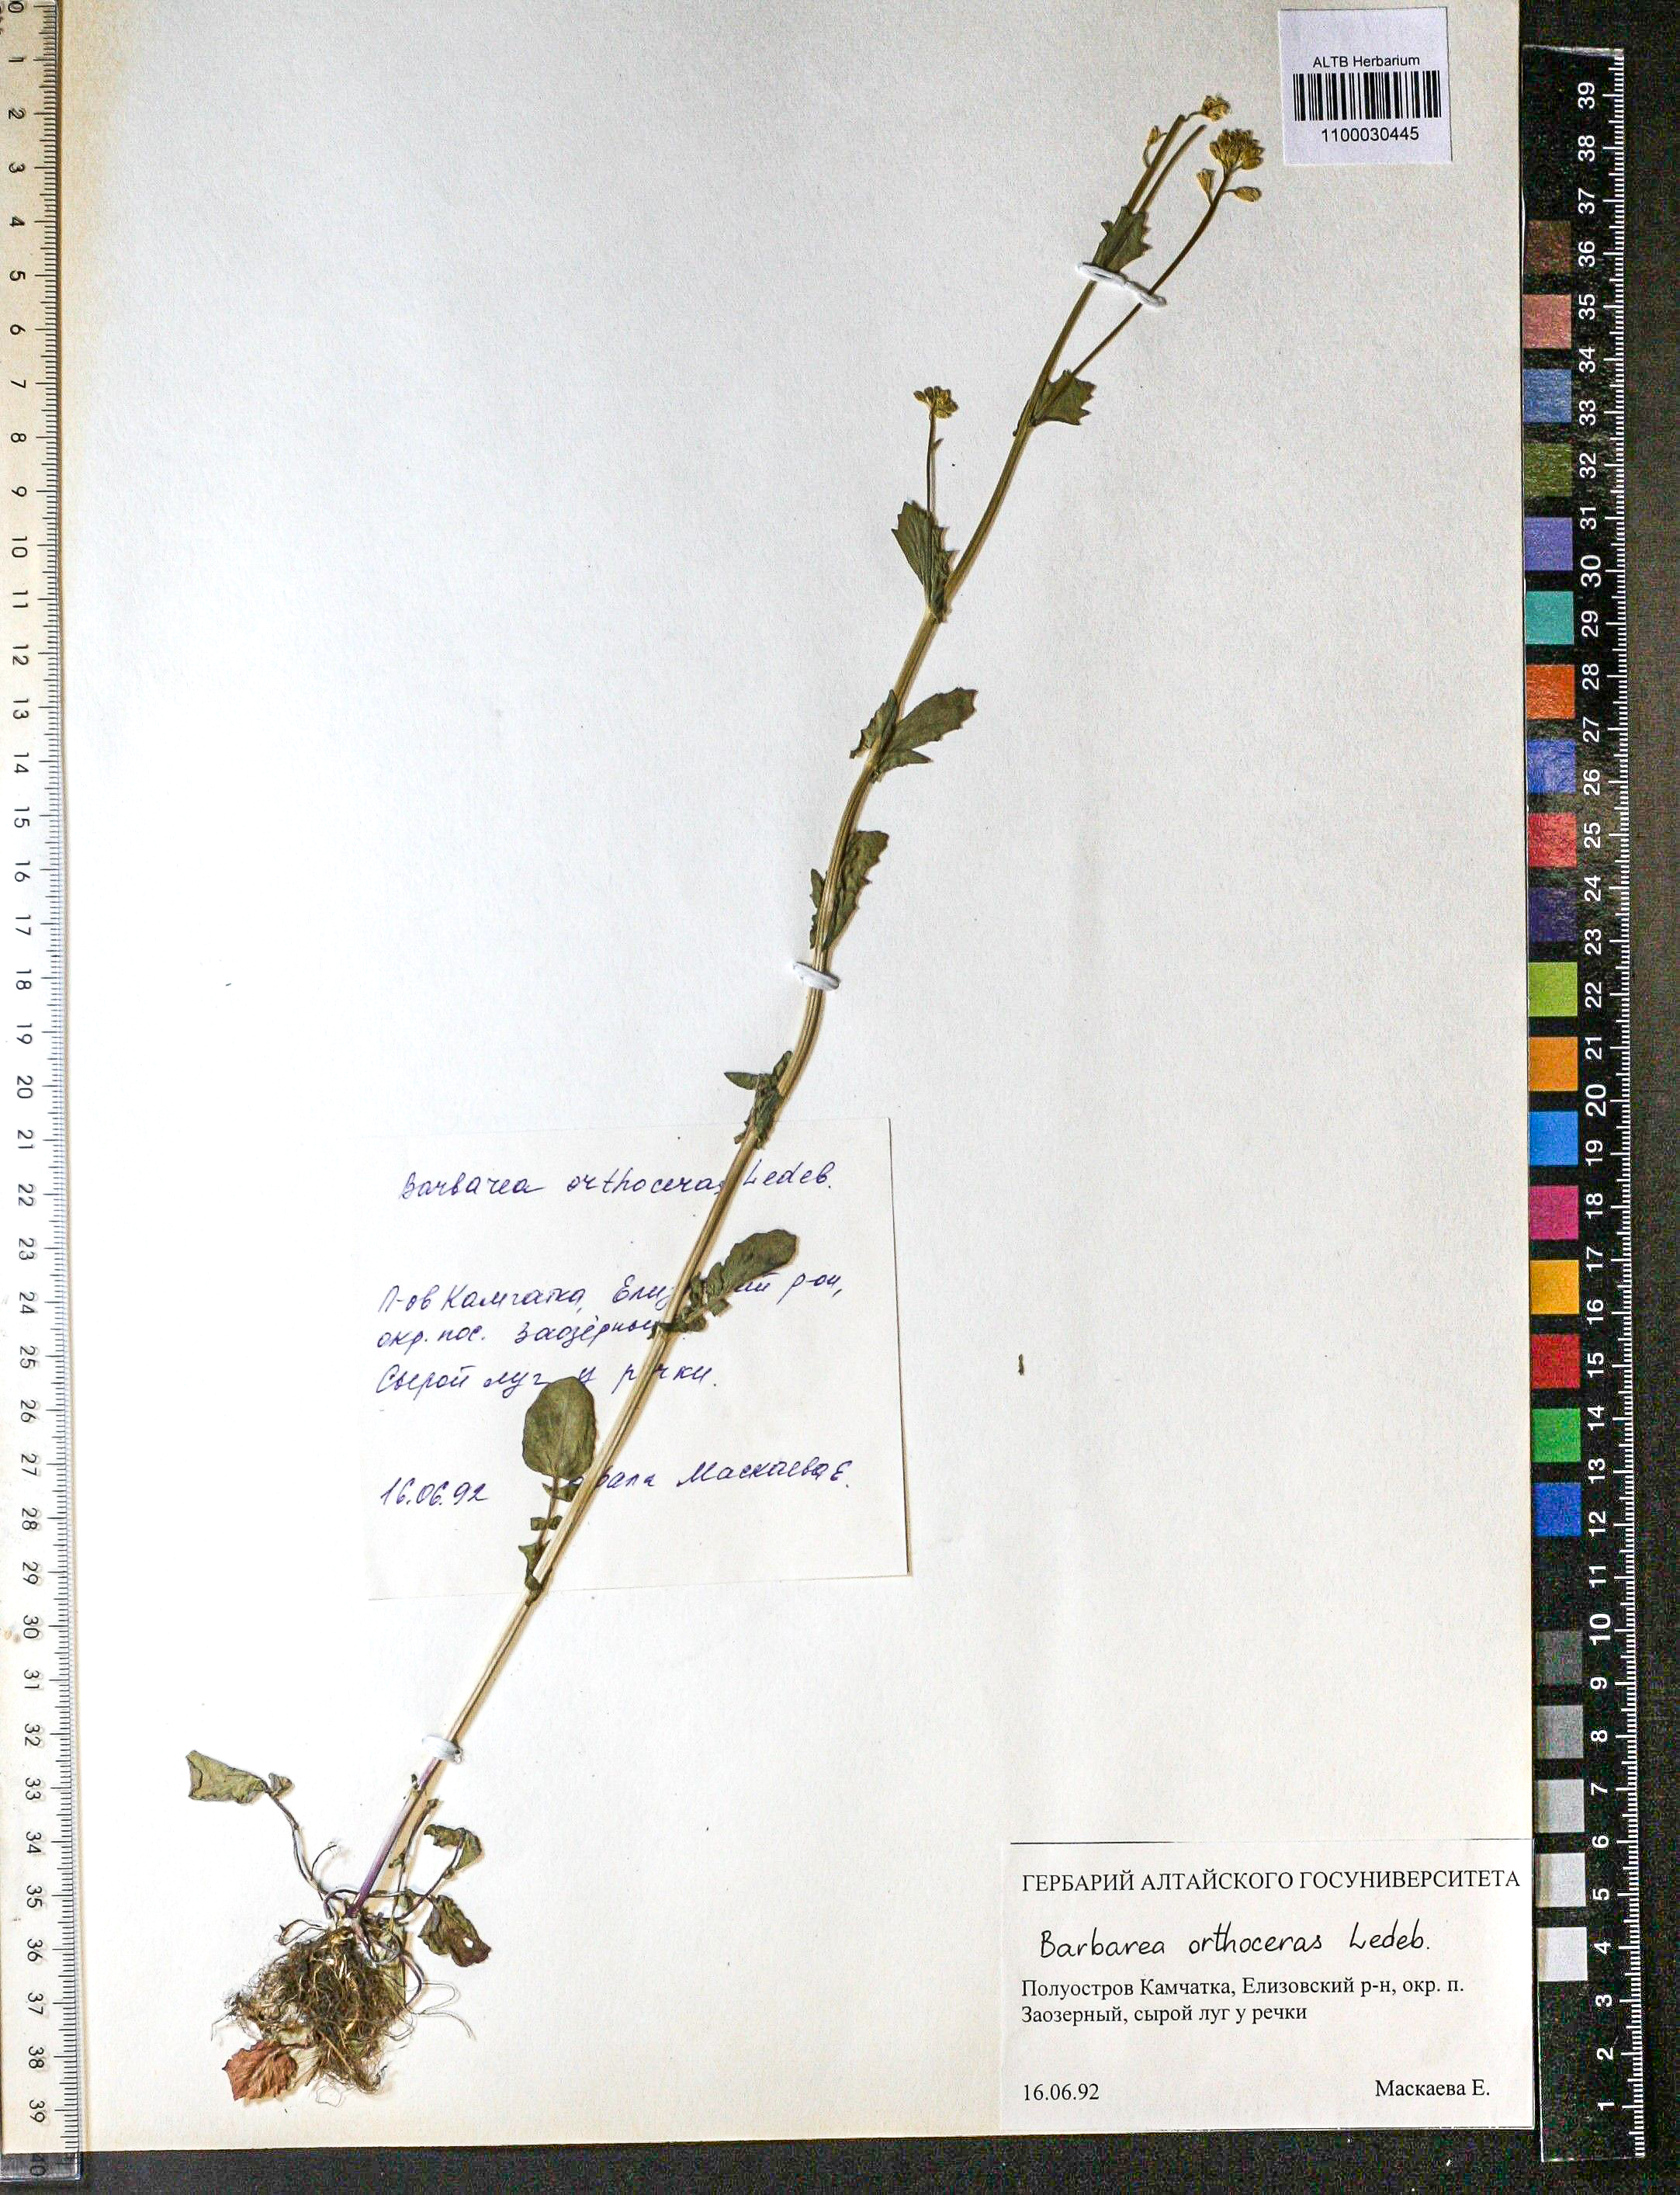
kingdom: Plantae
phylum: Tracheophyta
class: Magnoliopsida
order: Brassicales
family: Brassicaceae
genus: Barbarea
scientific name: Barbarea orthoceras
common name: American wintercress
